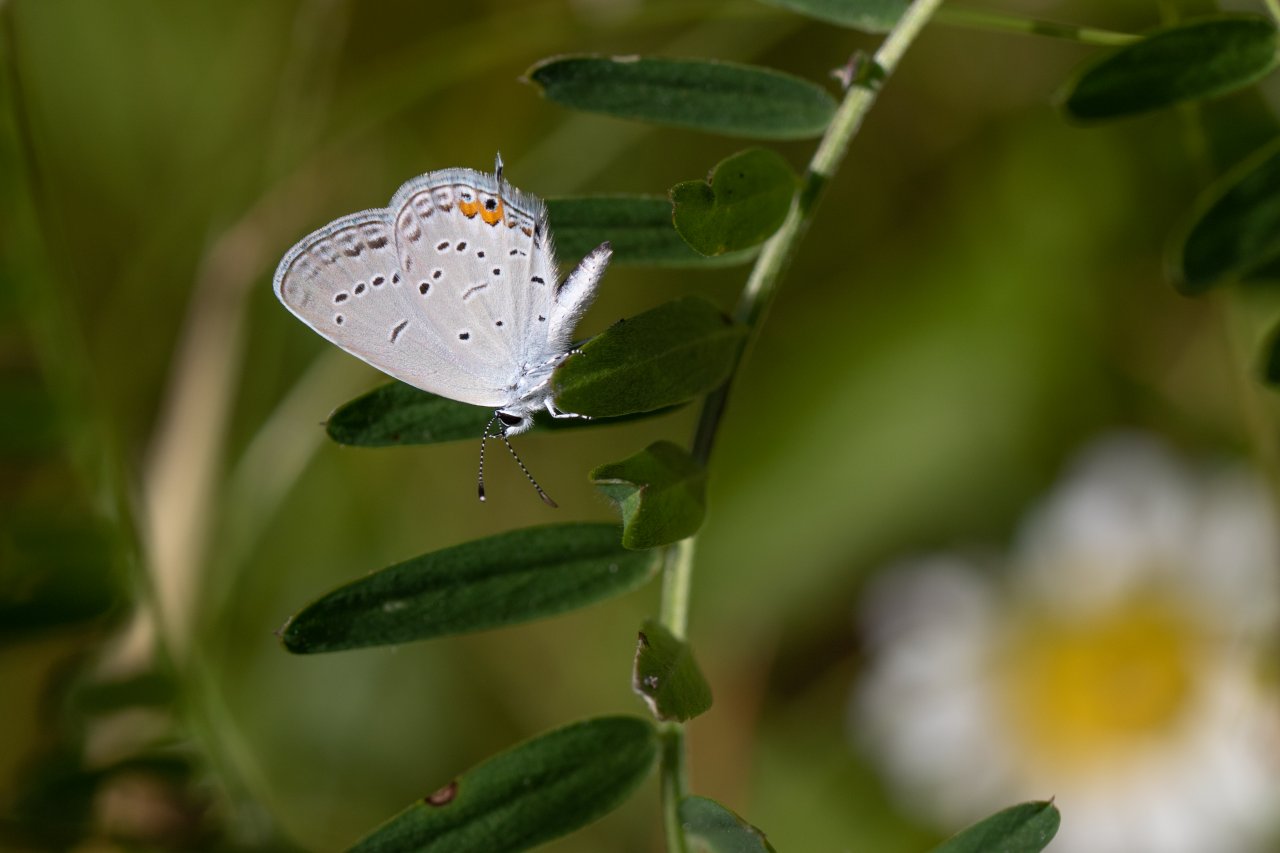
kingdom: Animalia
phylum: Arthropoda
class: Insecta
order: Lepidoptera
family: Lycaenidae
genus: Elkalyce
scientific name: Elkalyce comyntas
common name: Eastern Tailed-Blue
